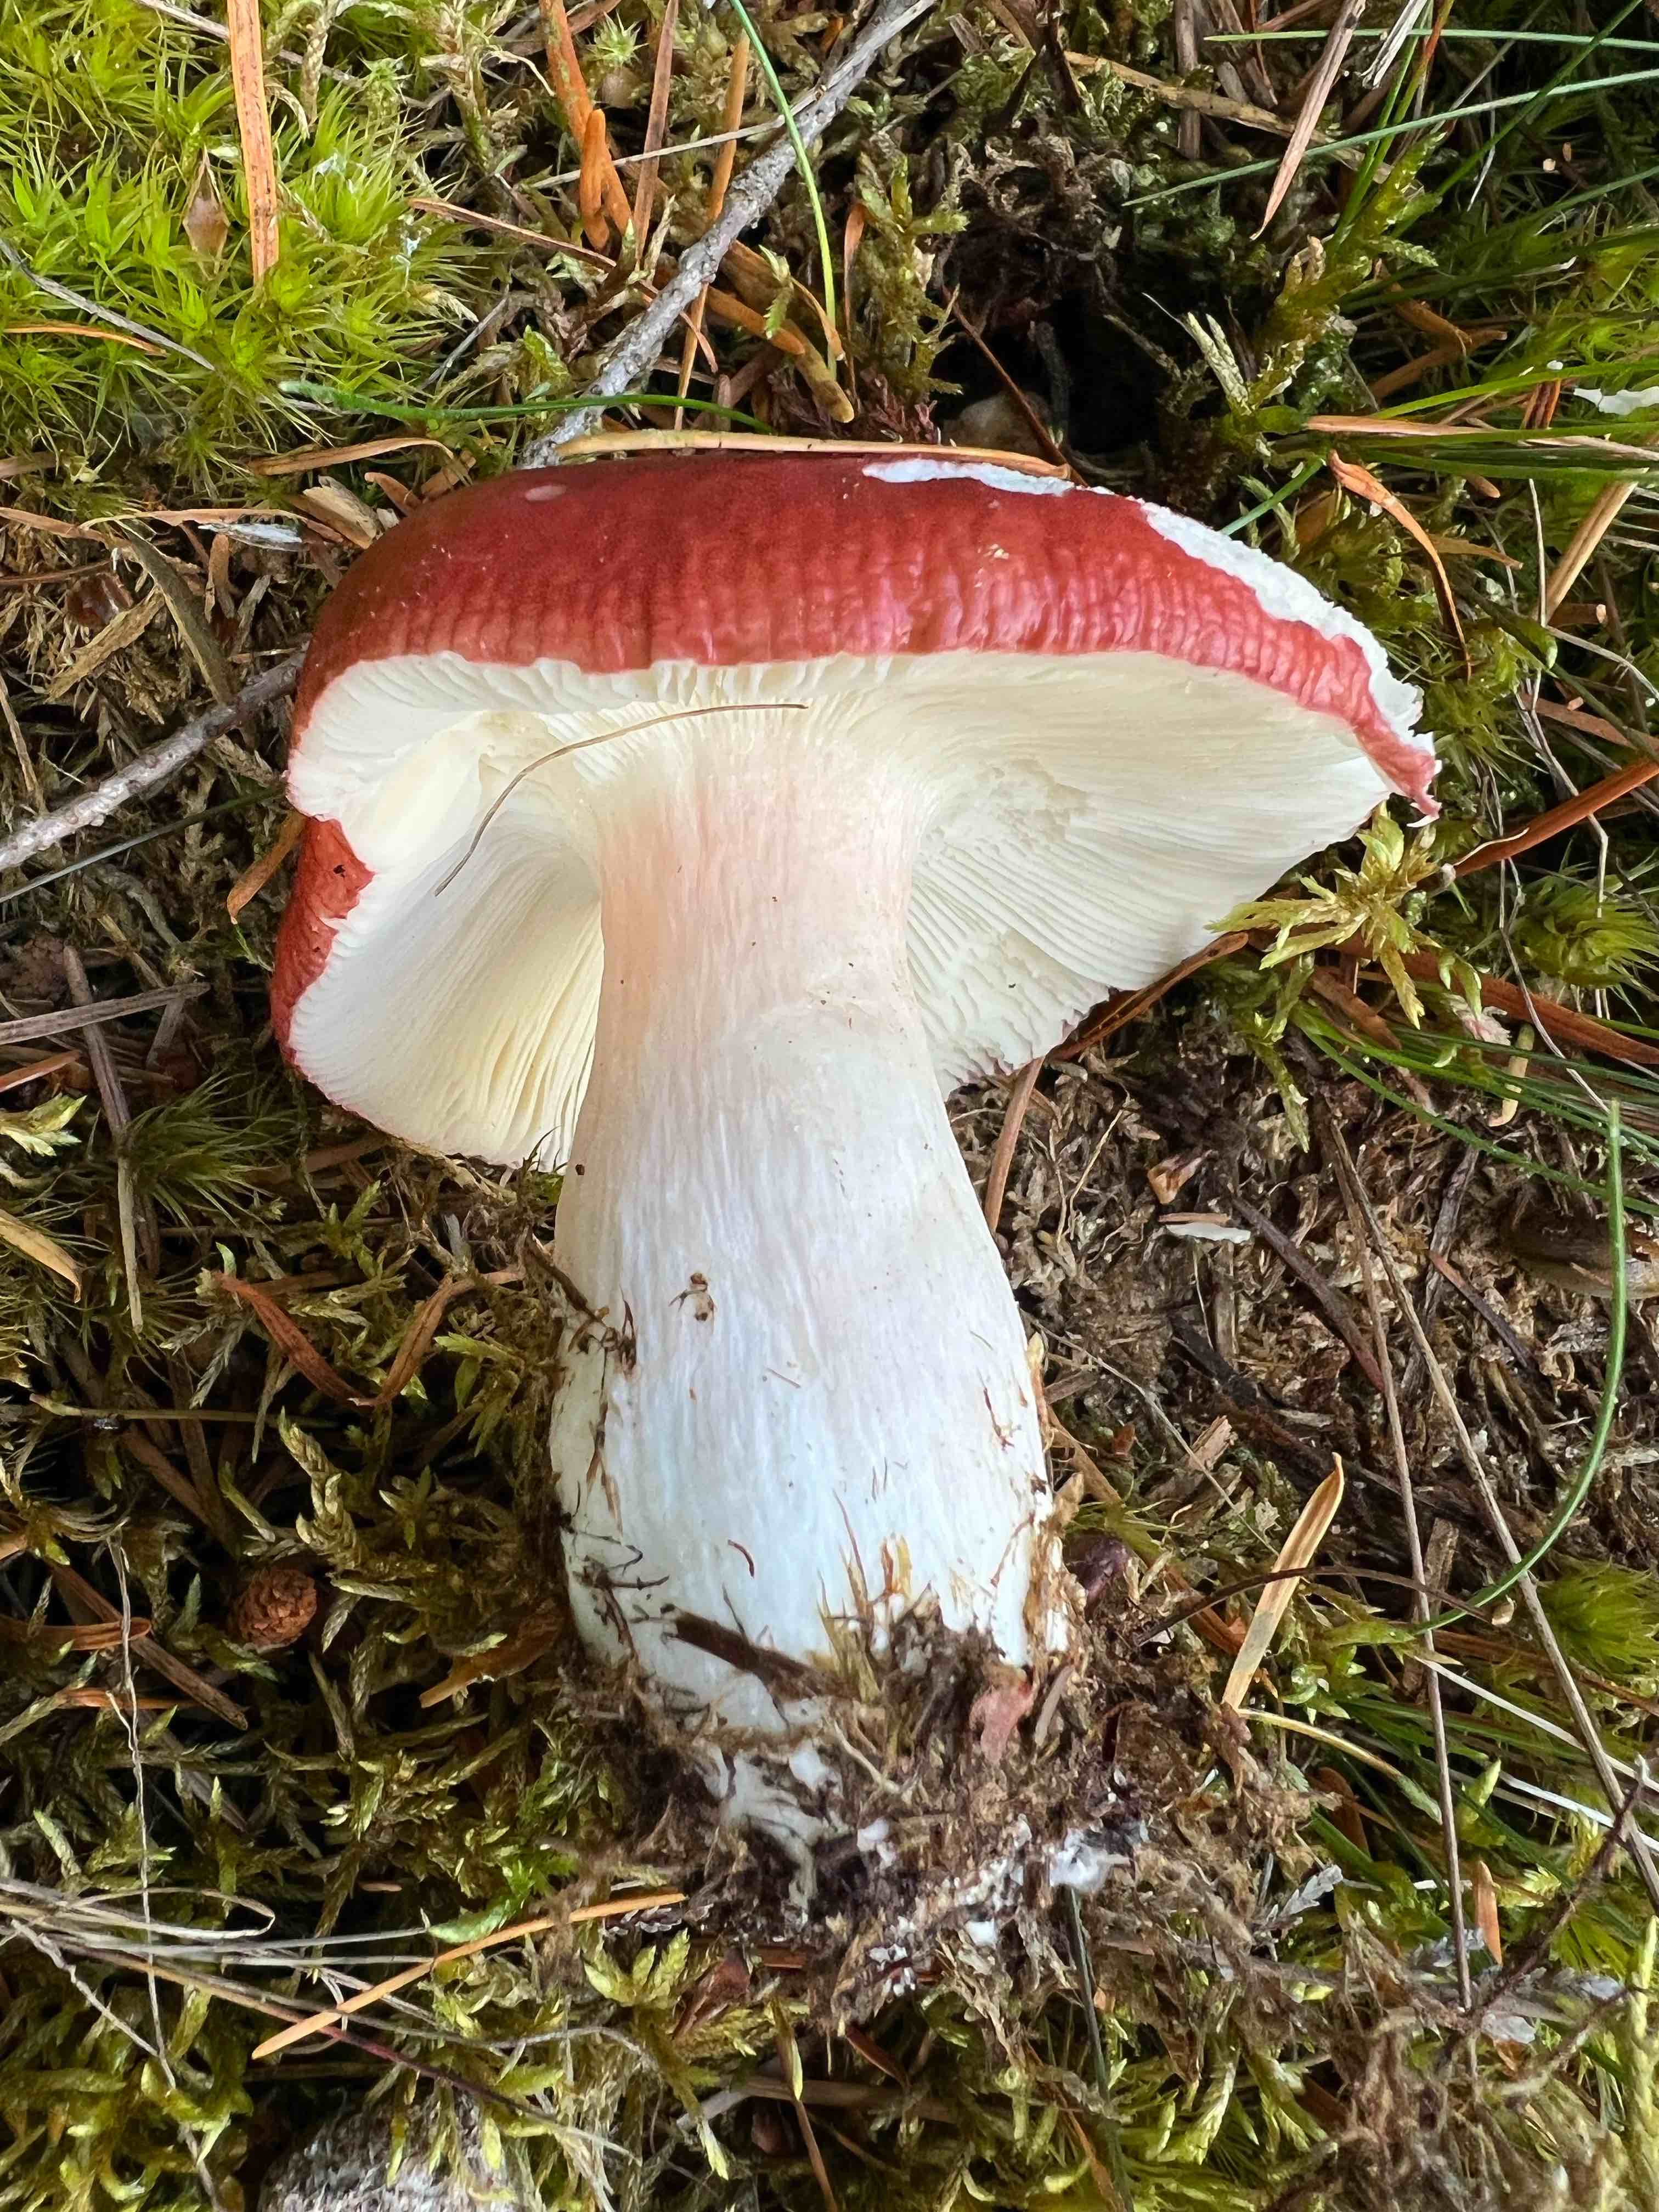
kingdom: Fungi
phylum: Basidiomycota
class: Agaricomycetes
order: Russulales
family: Russulaceae
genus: Russula
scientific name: Russula paludosa
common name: prægtig skørhat
